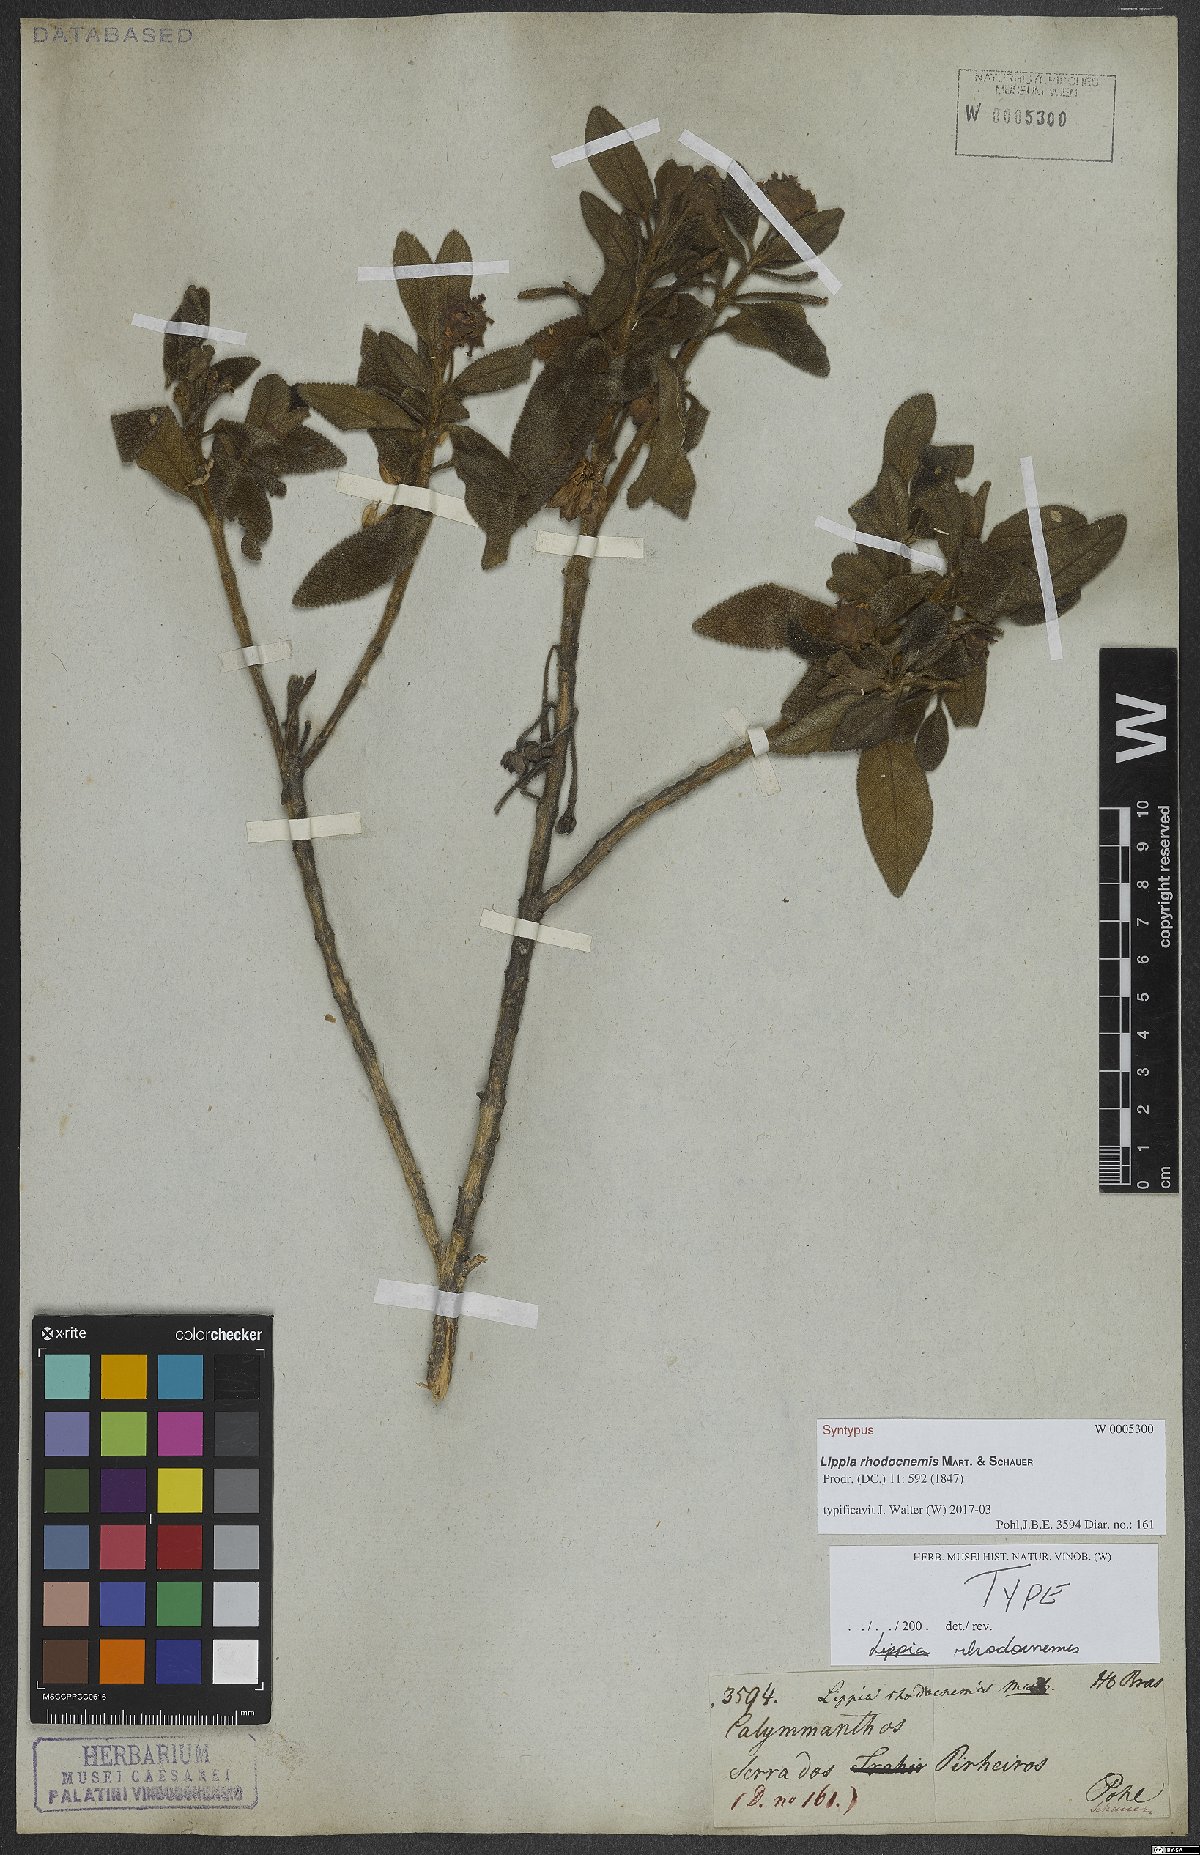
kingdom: Plantae
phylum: Tracheophyta
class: Magnoliopsida
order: Lamiales
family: Verbenaceae
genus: Lippia
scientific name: Lippia rhodocnemis
